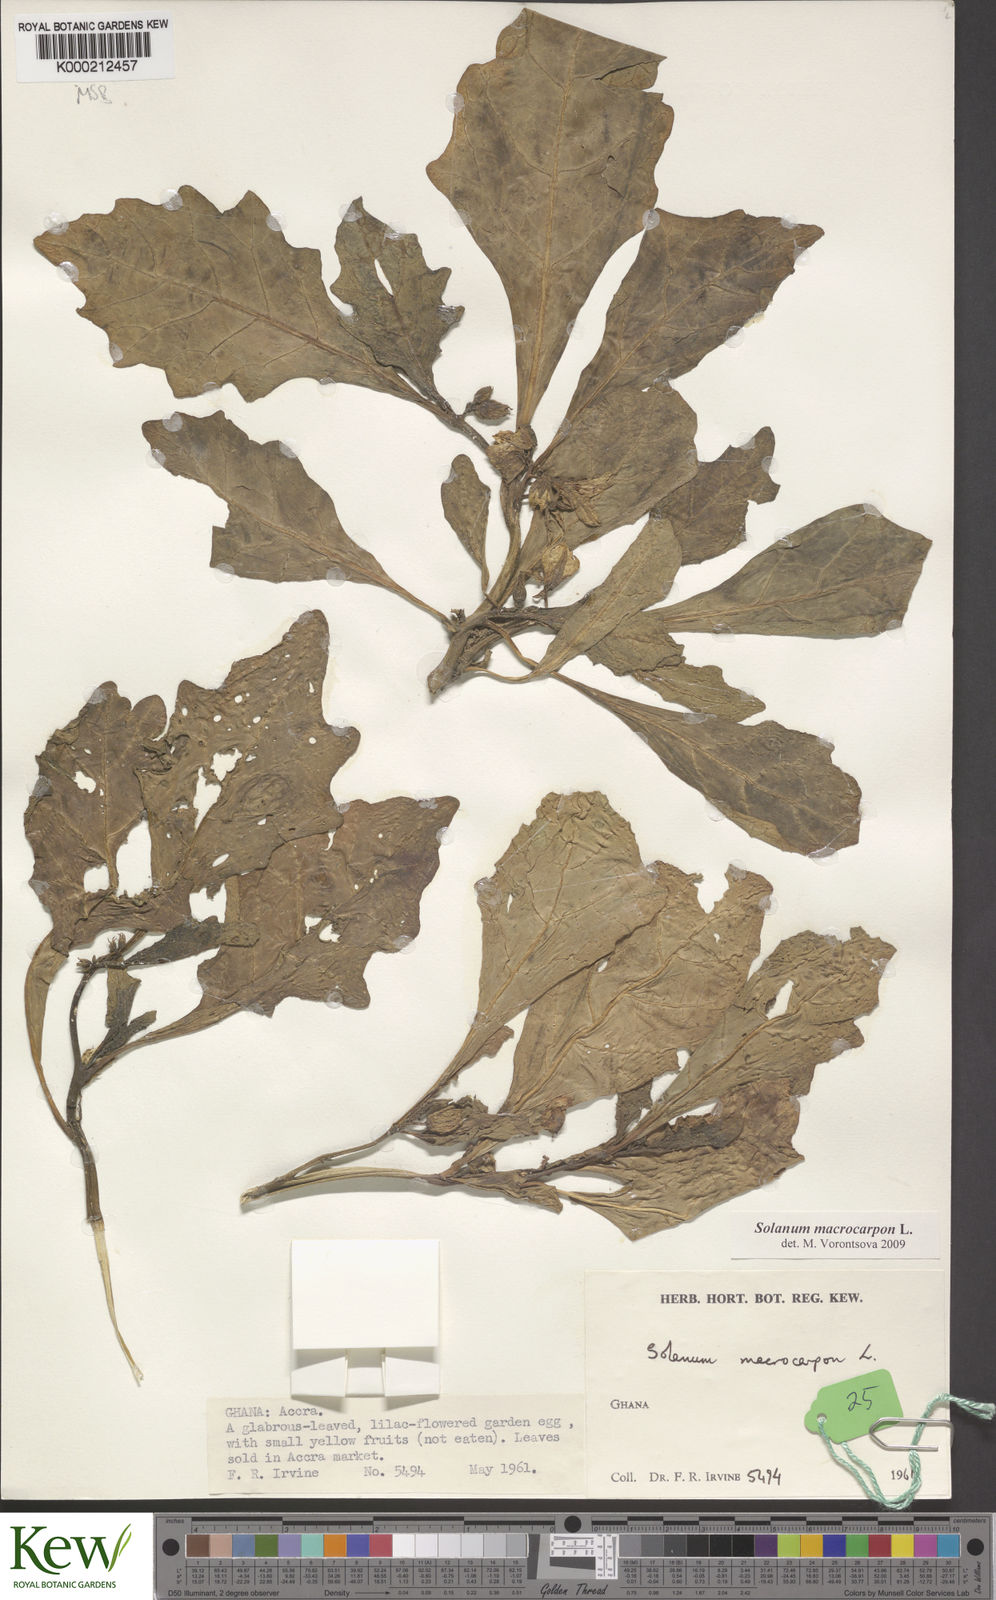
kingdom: Plantae
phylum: Tracheophyta
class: Magnoliopsida
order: Solanales
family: Solanaceae
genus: Solanum
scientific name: Solanum macrocarpon
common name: African eggplant
